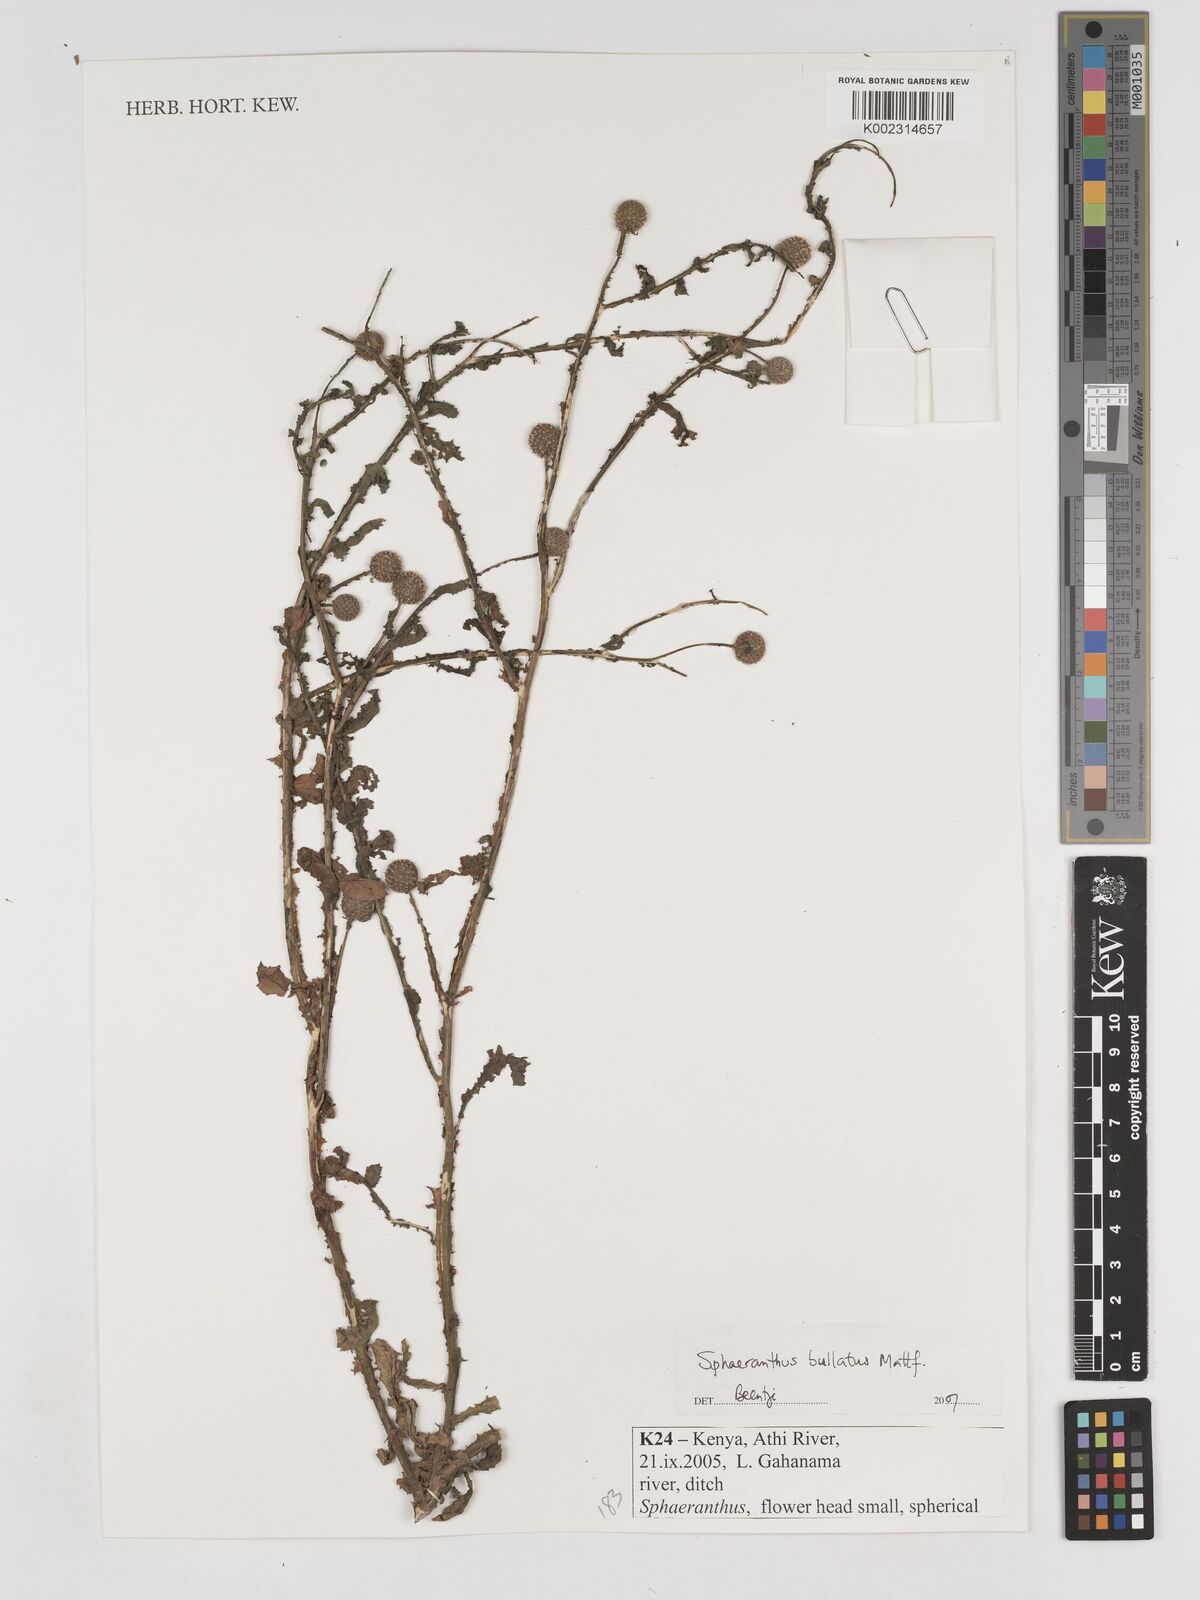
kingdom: Plantae
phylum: Tracheophyta
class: Magnoliopsida
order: Asterales
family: Asteraceae
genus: Sphaeranthus
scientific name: Sphaeranthus bullatus
